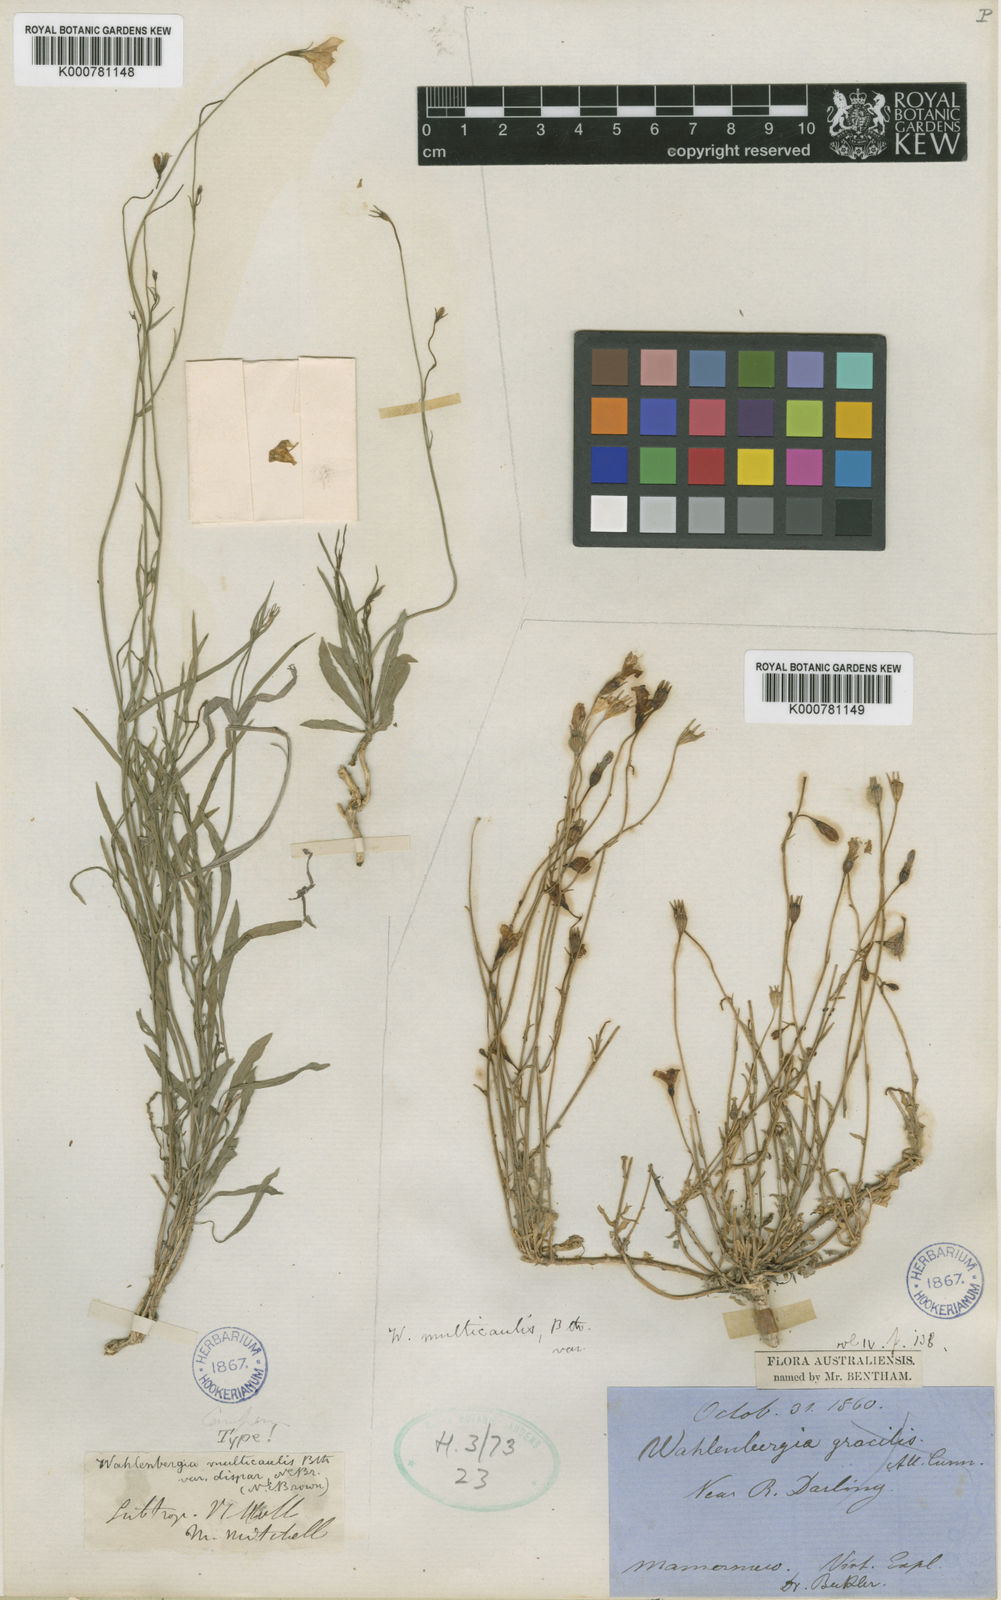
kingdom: Plantae
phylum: Tracheophyta
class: Magnoliopsida
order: Asterales
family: Campanulaceae
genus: Wahlenbergia
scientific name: Wahlenbergia multicaulis
